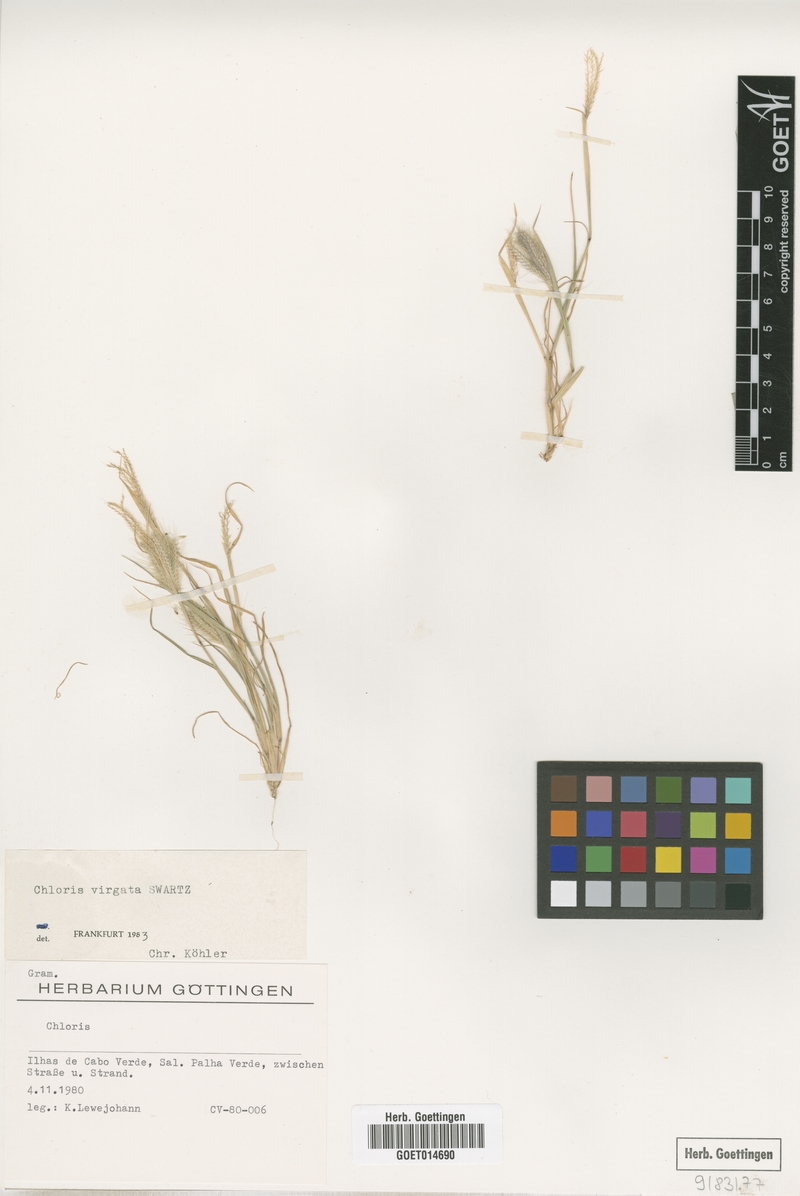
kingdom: Plantae
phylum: Tracheophyta
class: Liliopsida
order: Poales
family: Poaceae
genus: Chloris
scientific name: Chloris virgata
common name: Feathery rhodes-grass
